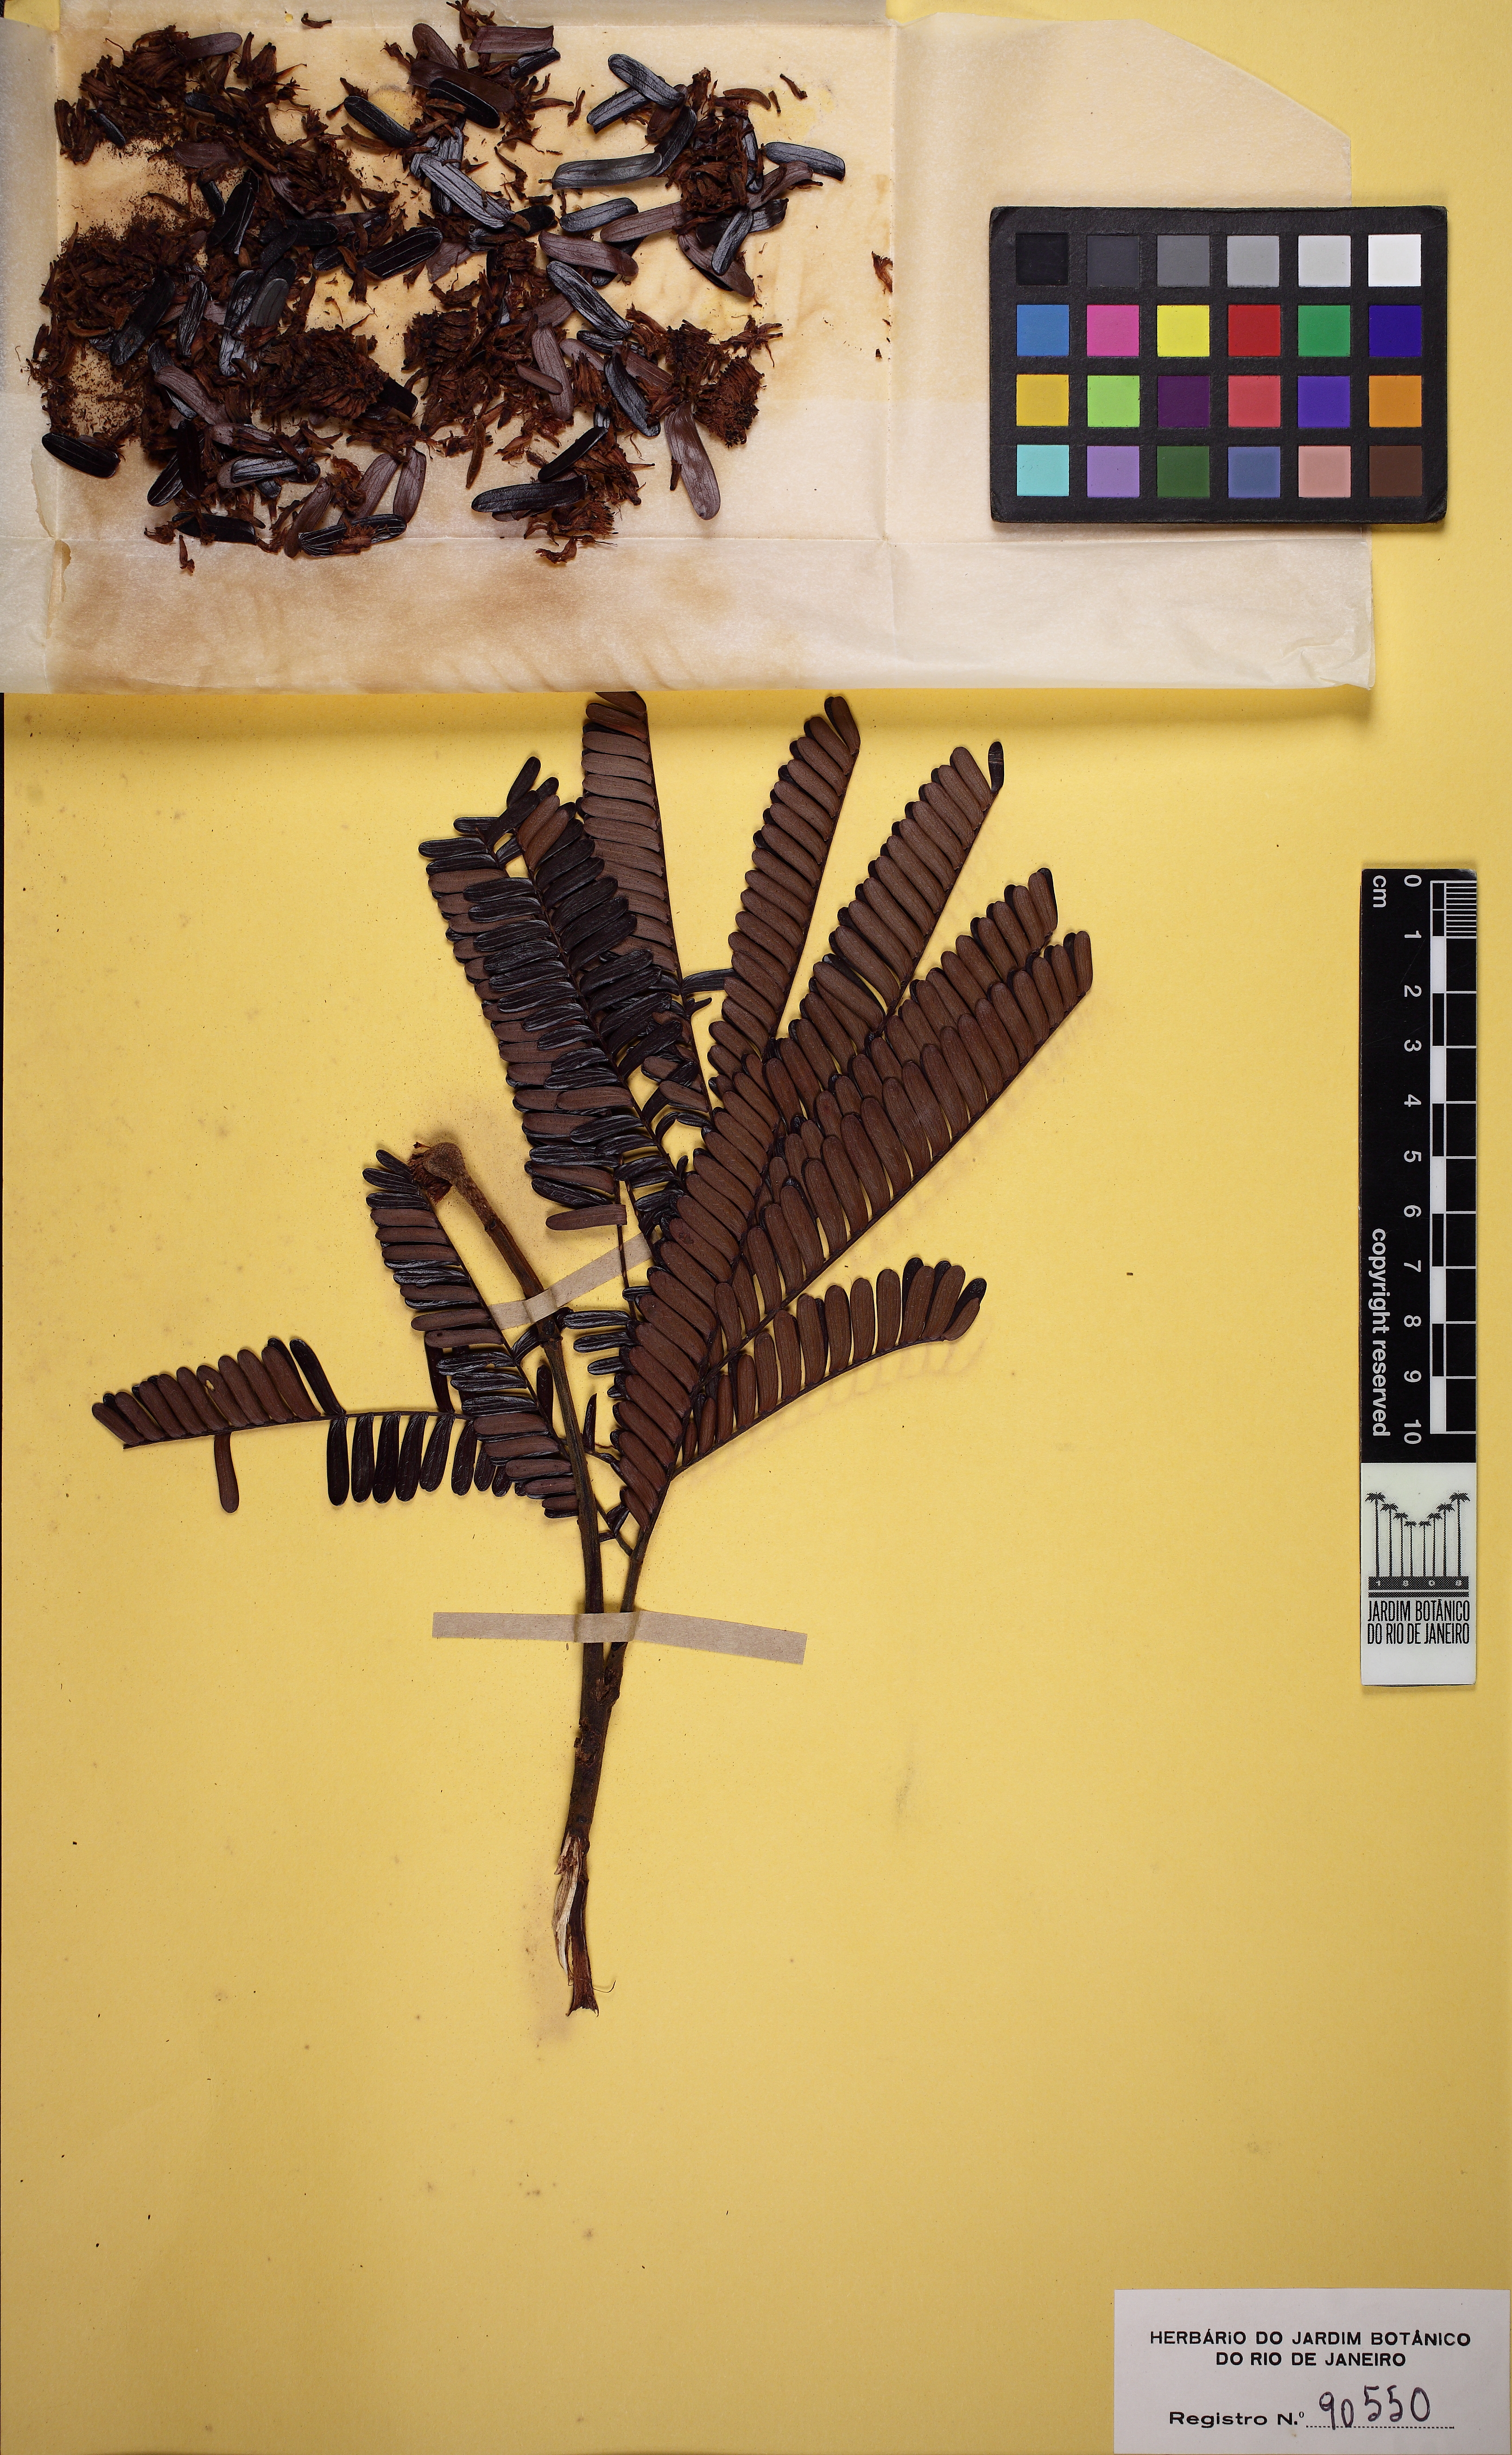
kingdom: Plantae
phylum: Tracheophyta
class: Magnoliopsida
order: Fabales
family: Fabaceae
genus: Parkia
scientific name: Parkia cachimboensis
